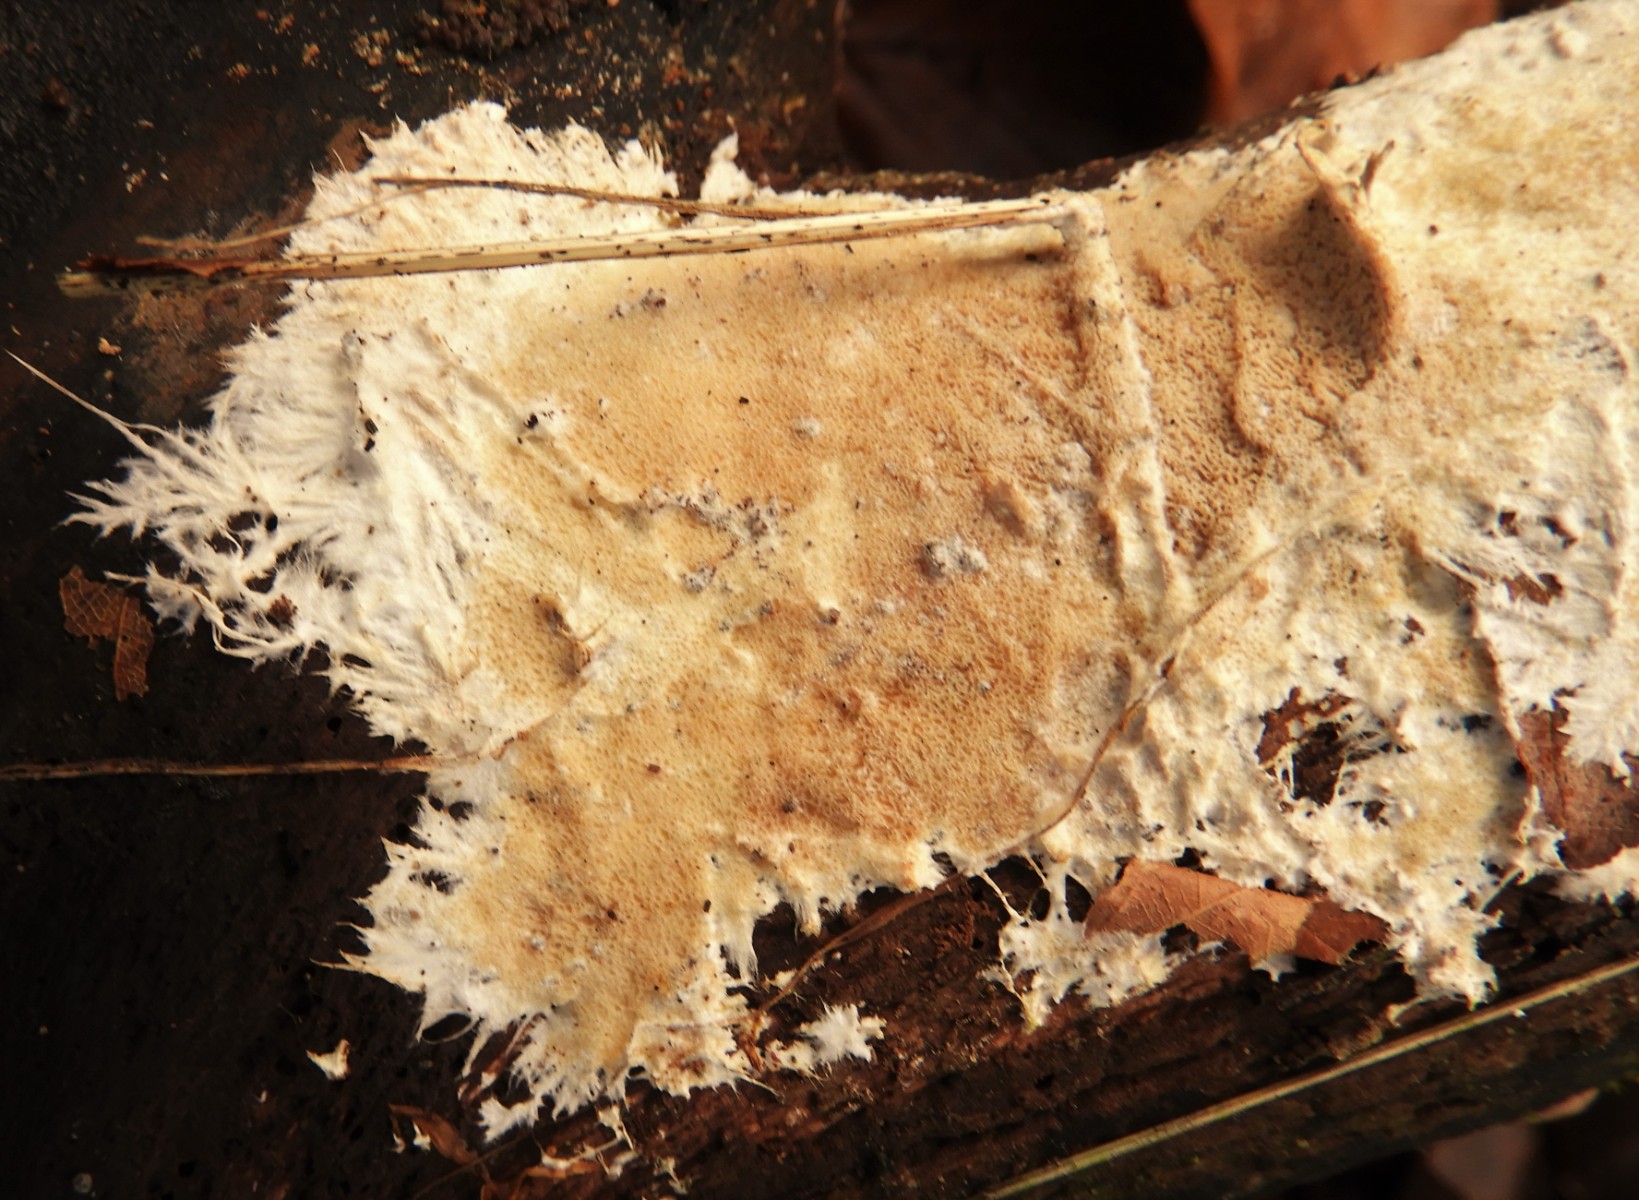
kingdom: Fungi
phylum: Basidiomycota
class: Agaricomycetes
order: Polyporales
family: Steccherinaceae
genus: Steccherinum
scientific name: Steccherinum fimbriatum
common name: trådet skønpig
